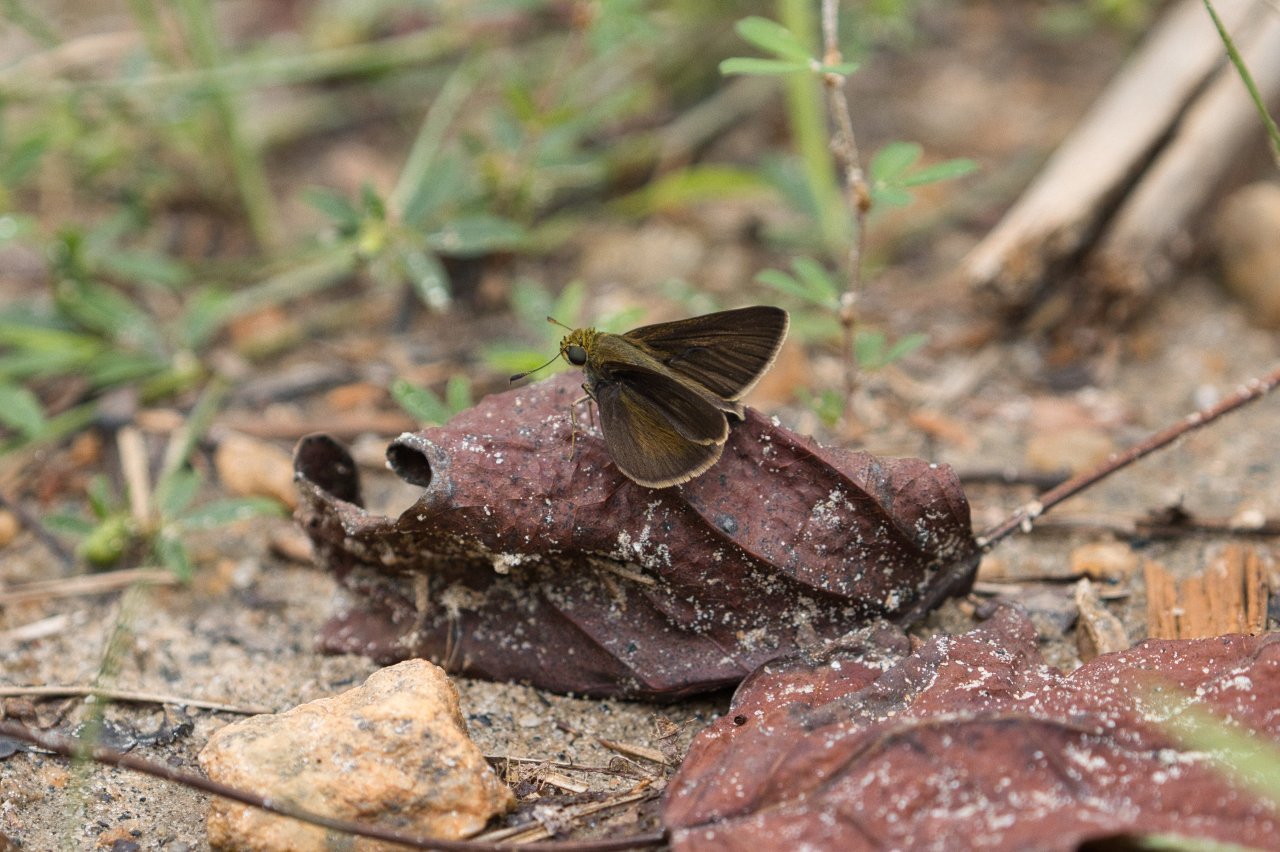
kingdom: Animalia
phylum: Arthropoda
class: Insecta
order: Lepidoptera
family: Hesperiidae
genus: Euphyes
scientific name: Euphyes vestris
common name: Dun Skipper
